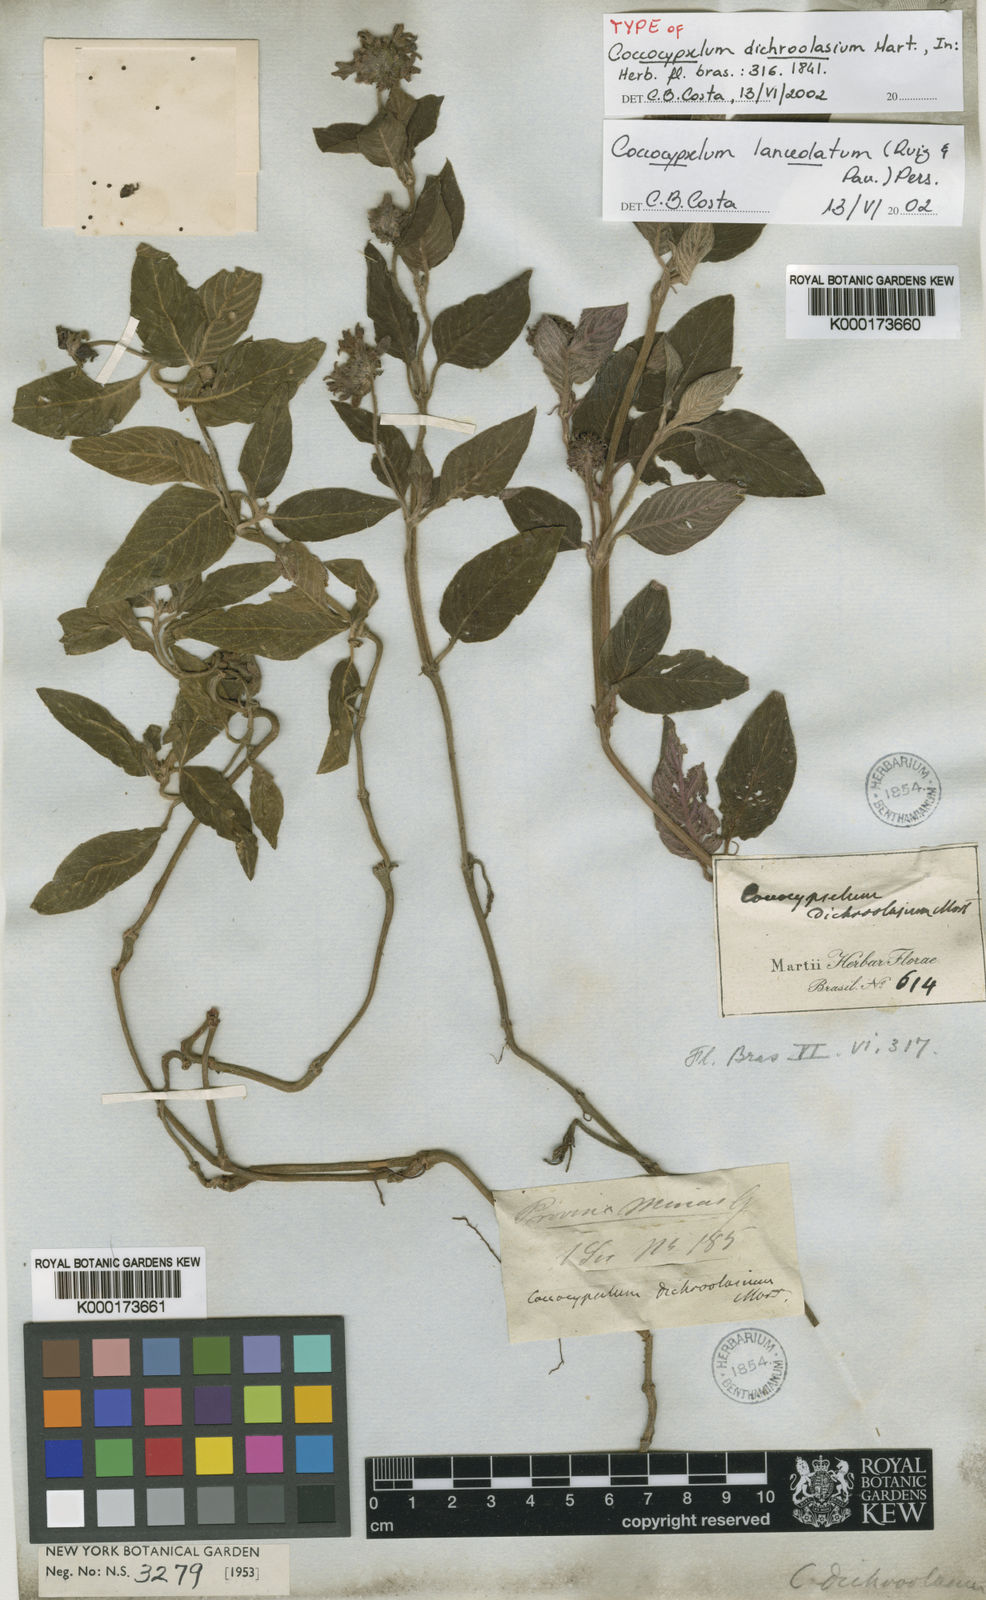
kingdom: Plantae
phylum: Tracheophyta
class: Magnoliopsida
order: Gentianales
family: Rubiaceae
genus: Coccocypselum
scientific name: Coccocypselum lanceolatum
